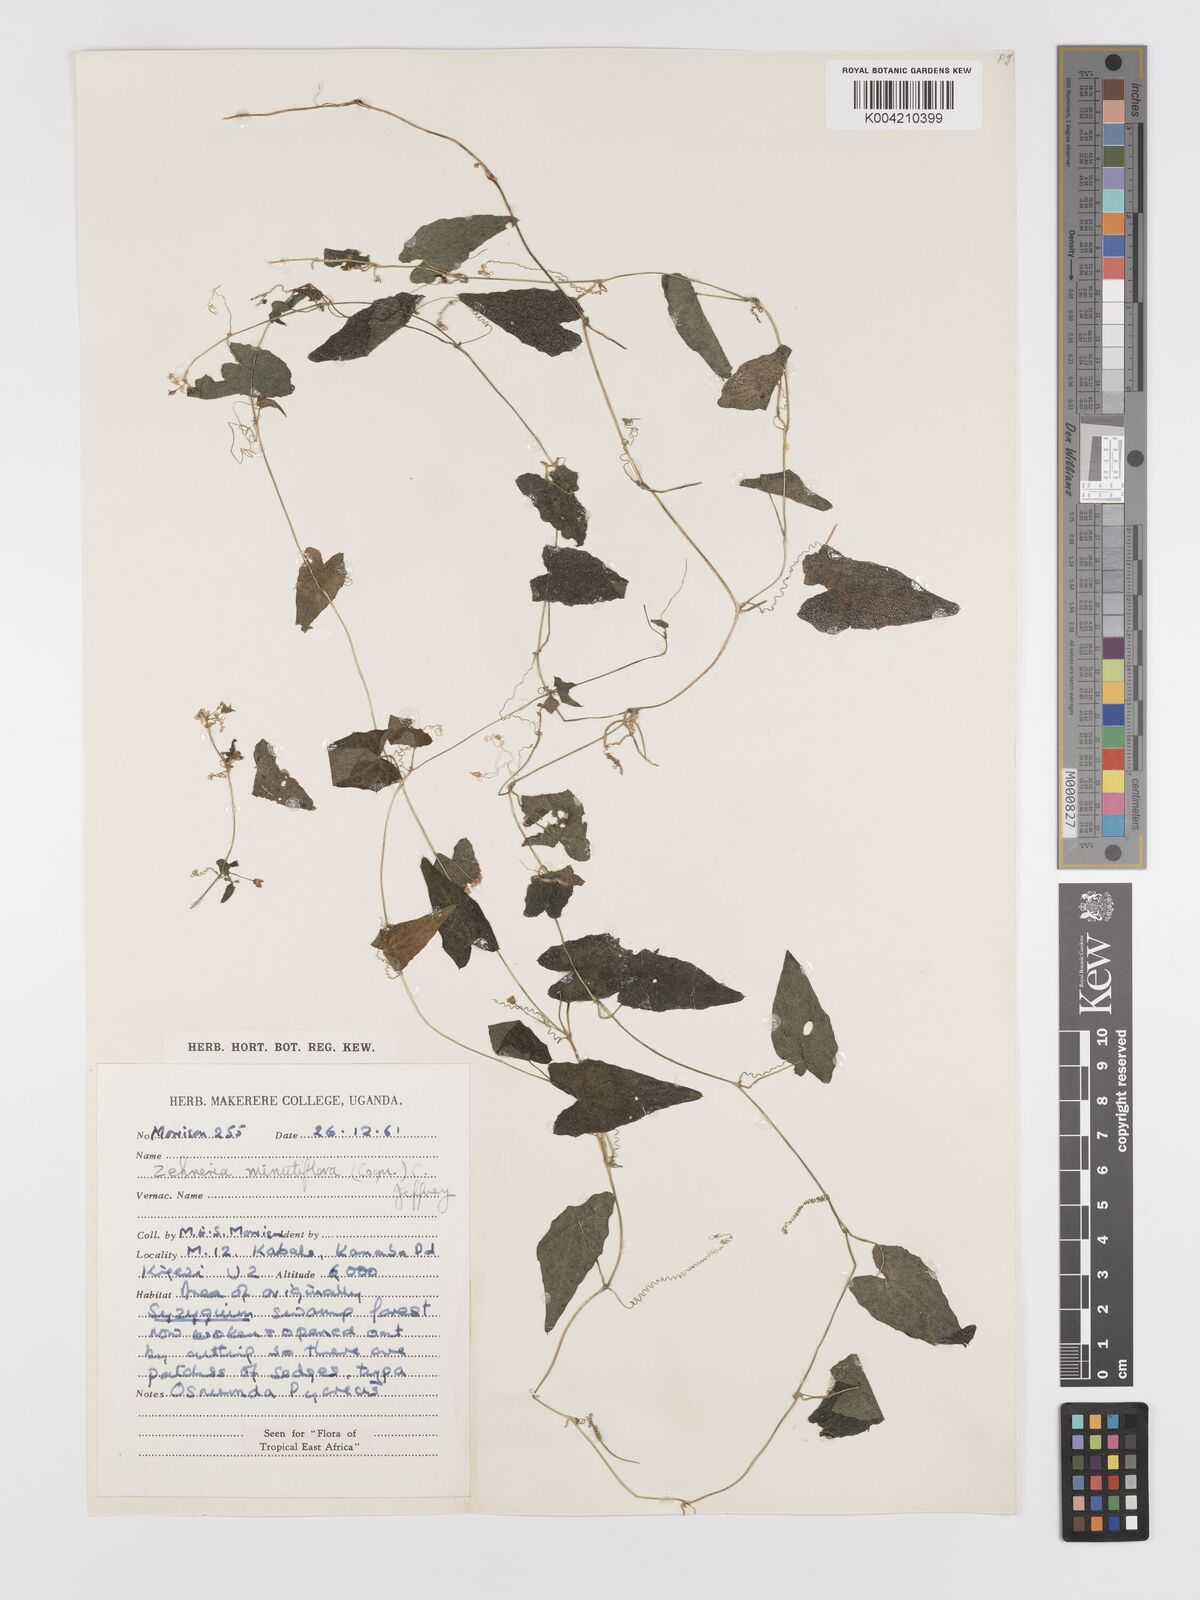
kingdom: Plantae
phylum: Tracheophyta
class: Magnoliopsida
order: Cucurbitales
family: Cucurbitaceae
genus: Zehneria
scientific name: Zehneria minutiflora
